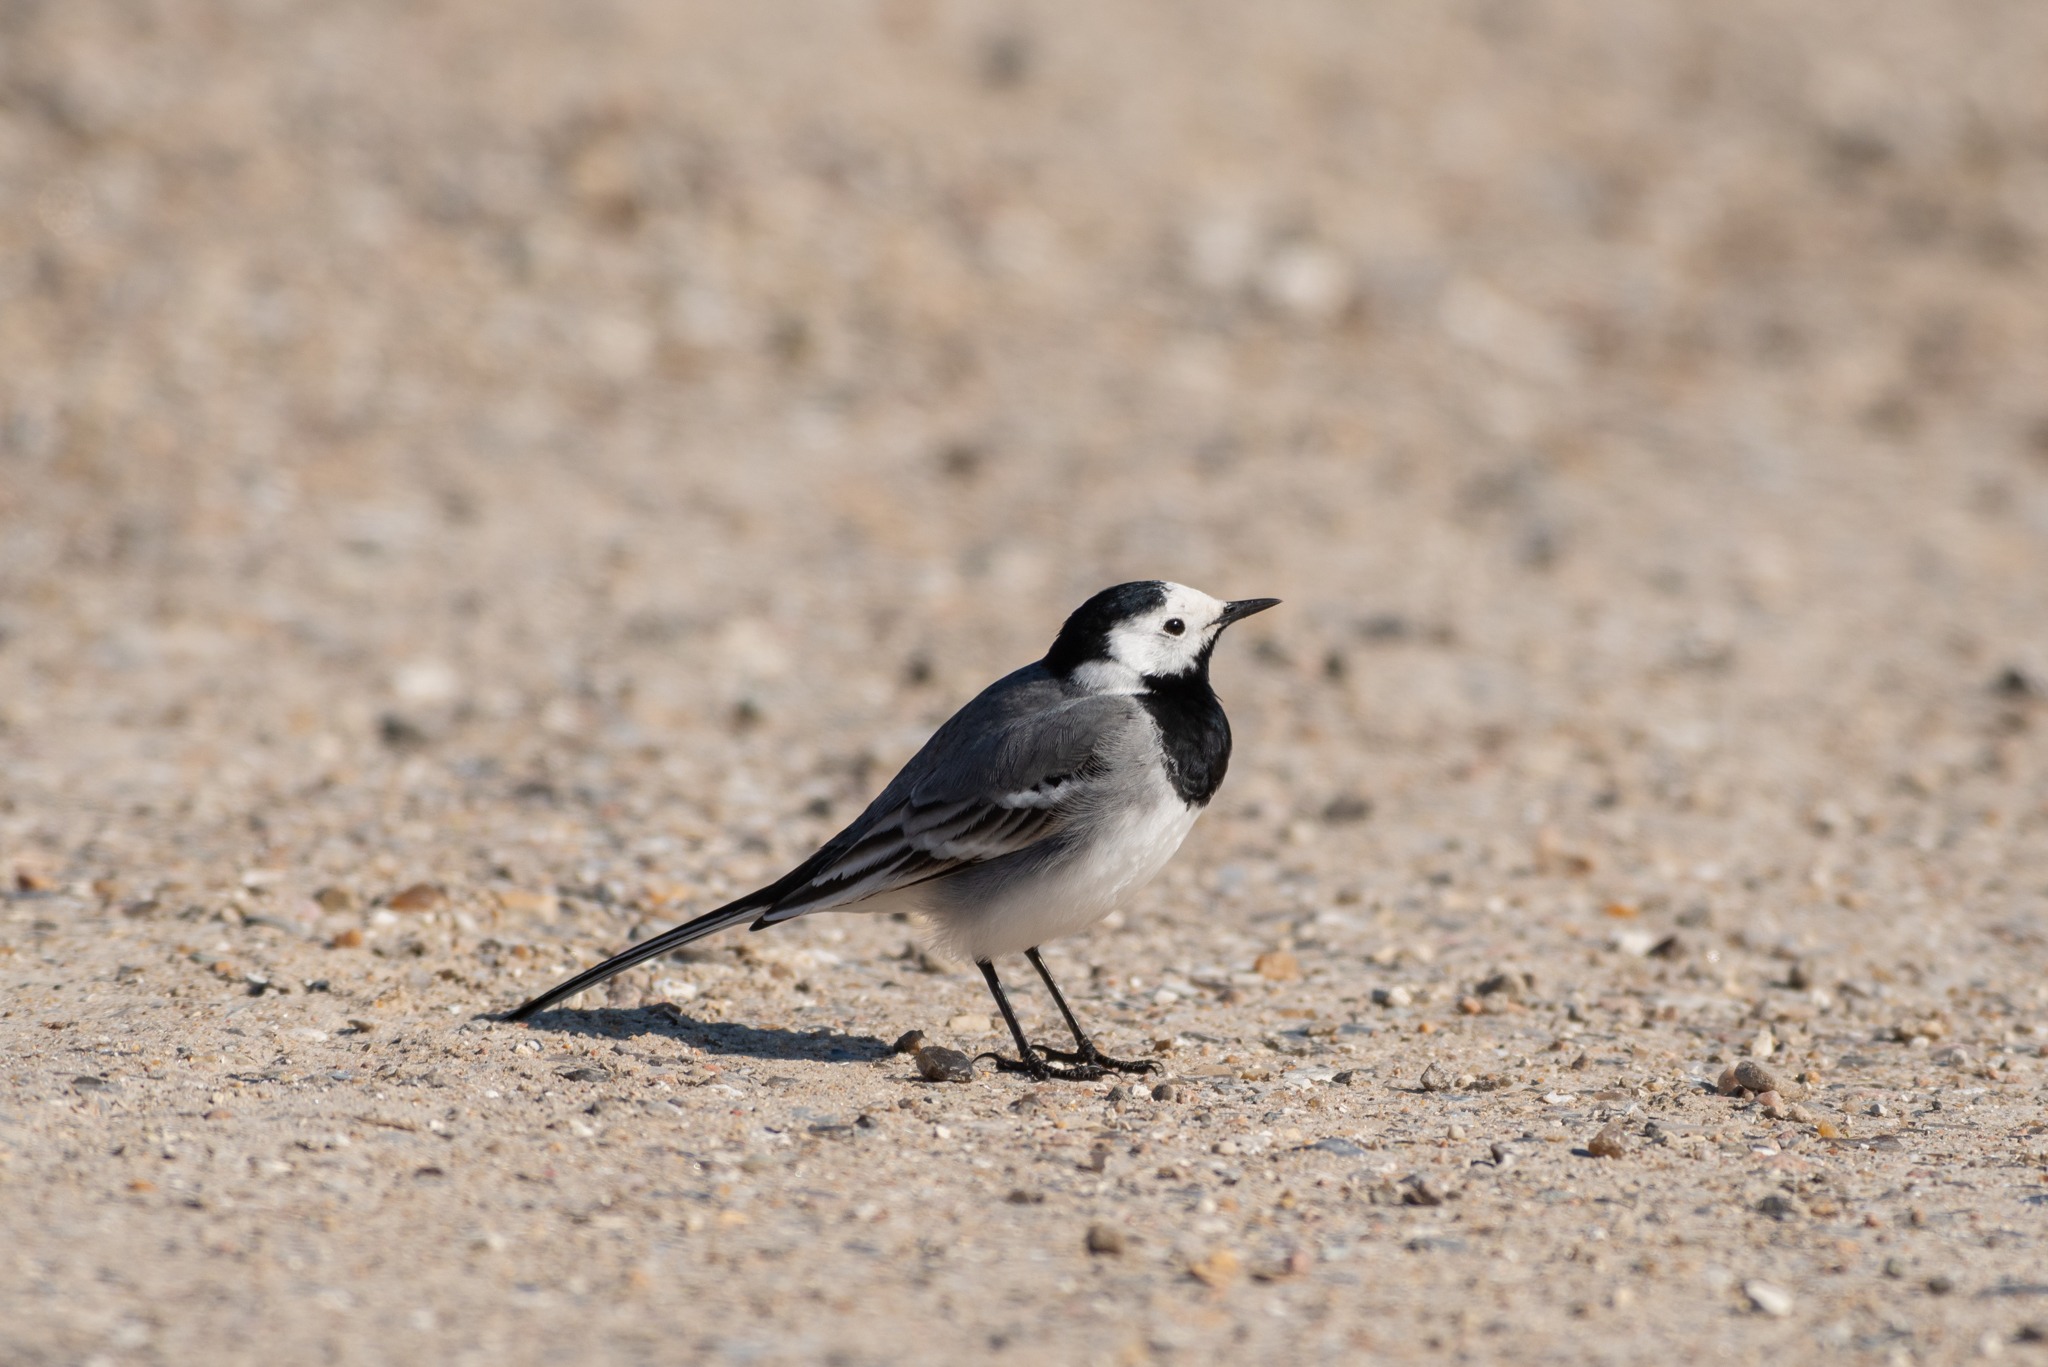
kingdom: Animalia
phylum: Chordata
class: Aves
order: Passeriformes
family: Motacillidae
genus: Motacilla
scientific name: Motacilla alba
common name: Hvid vipstjert
